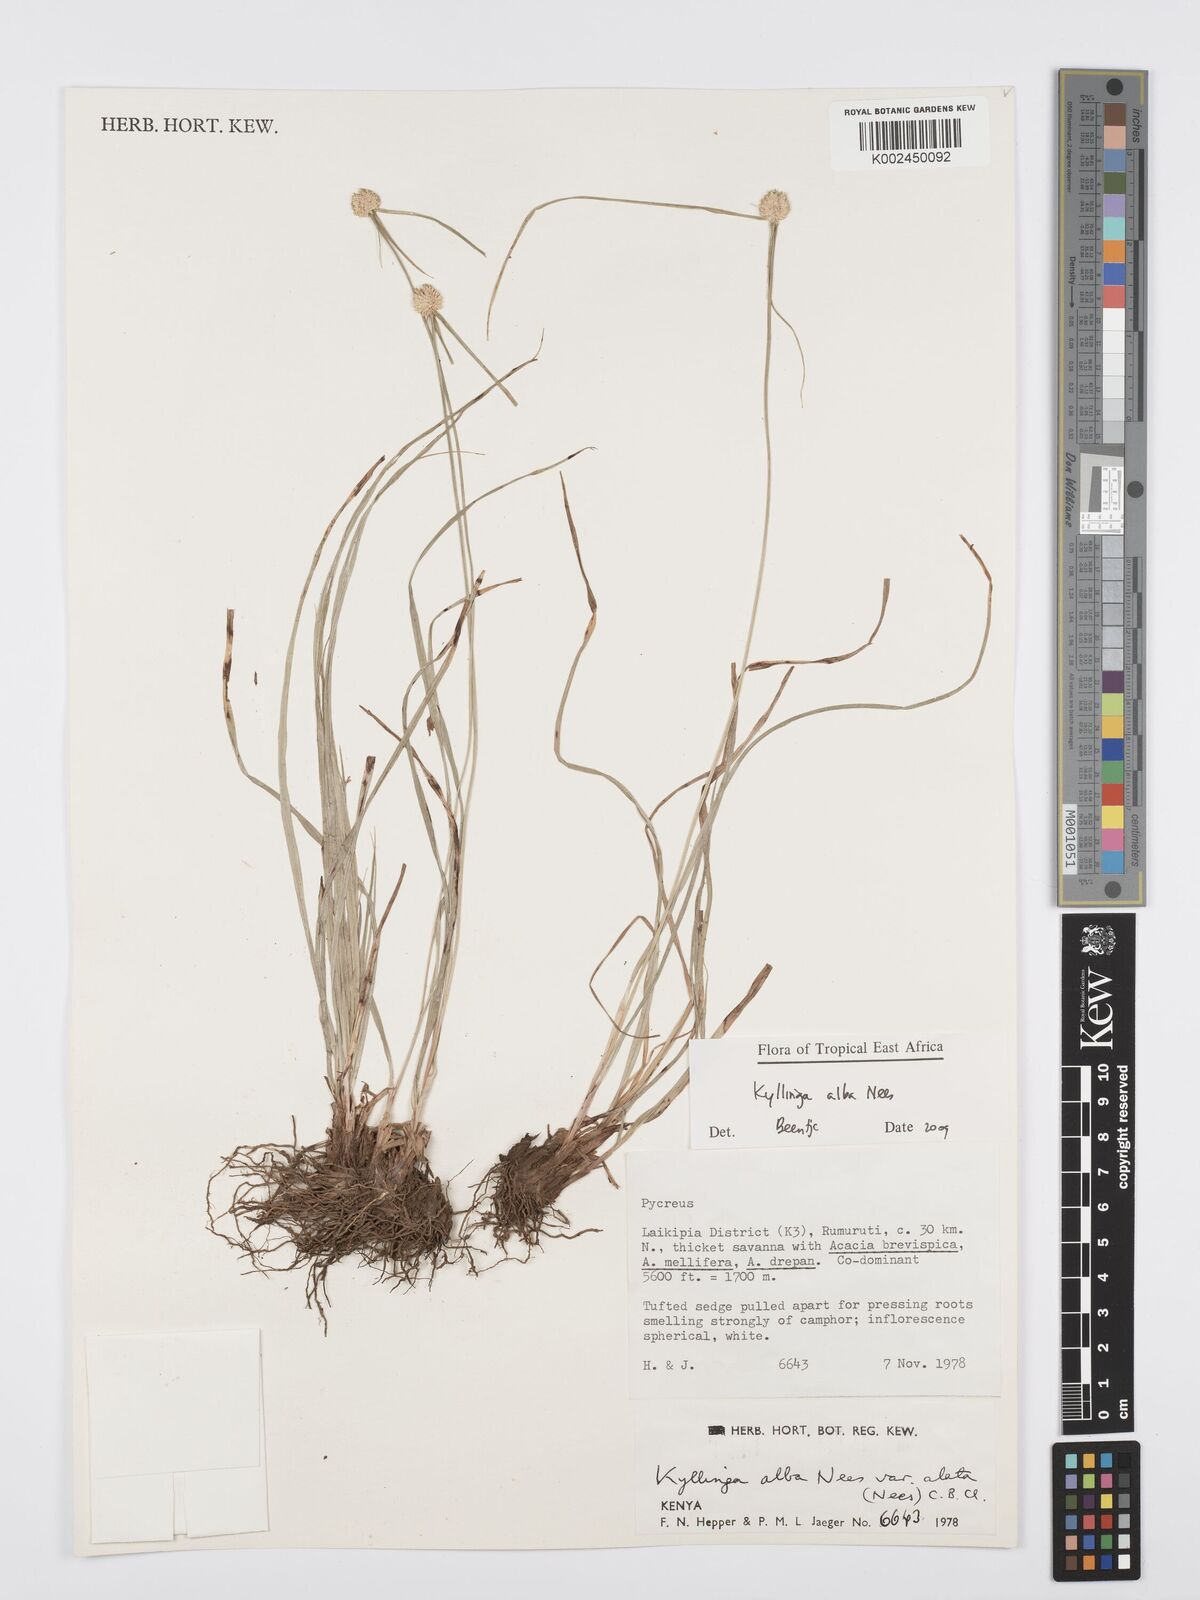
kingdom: Plantae
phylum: Tracheophyta
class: Liliopsida
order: Poales
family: Cyperaceae
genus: Cyperus
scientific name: Cyperus
